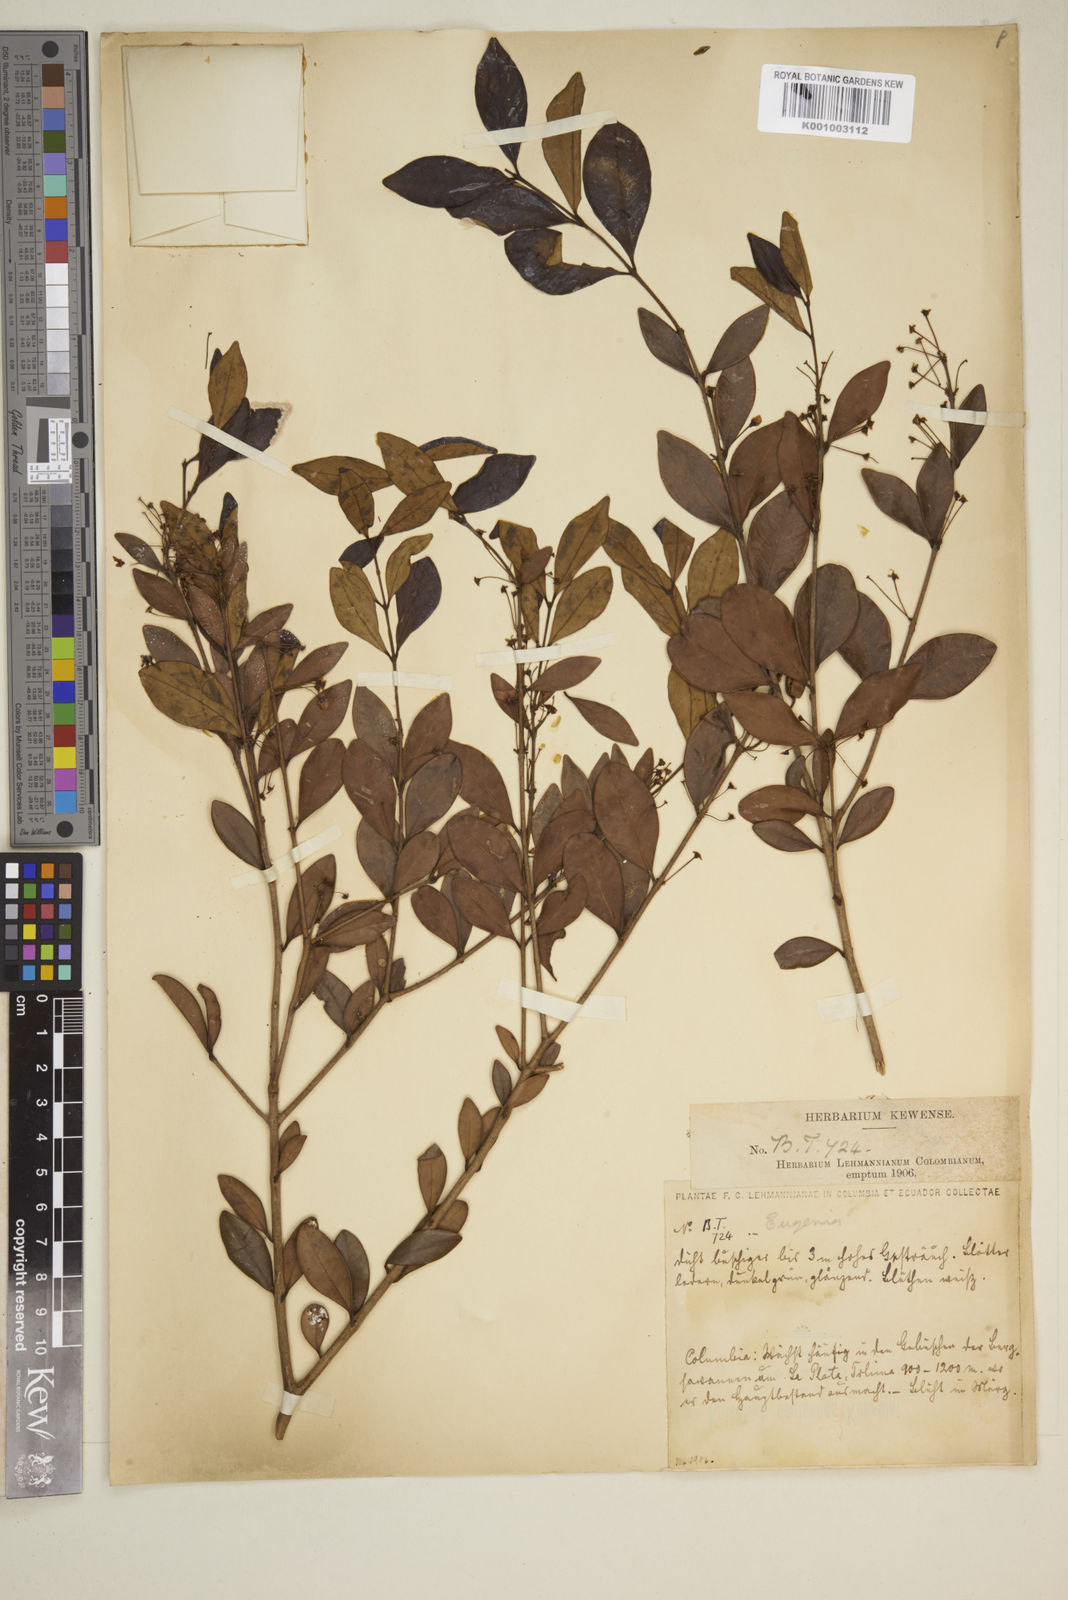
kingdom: Plantae
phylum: Tracheophyta
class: Magnoliopsida
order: Myrtales
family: Myrtaceae
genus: Eugenia
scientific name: Eugenia
